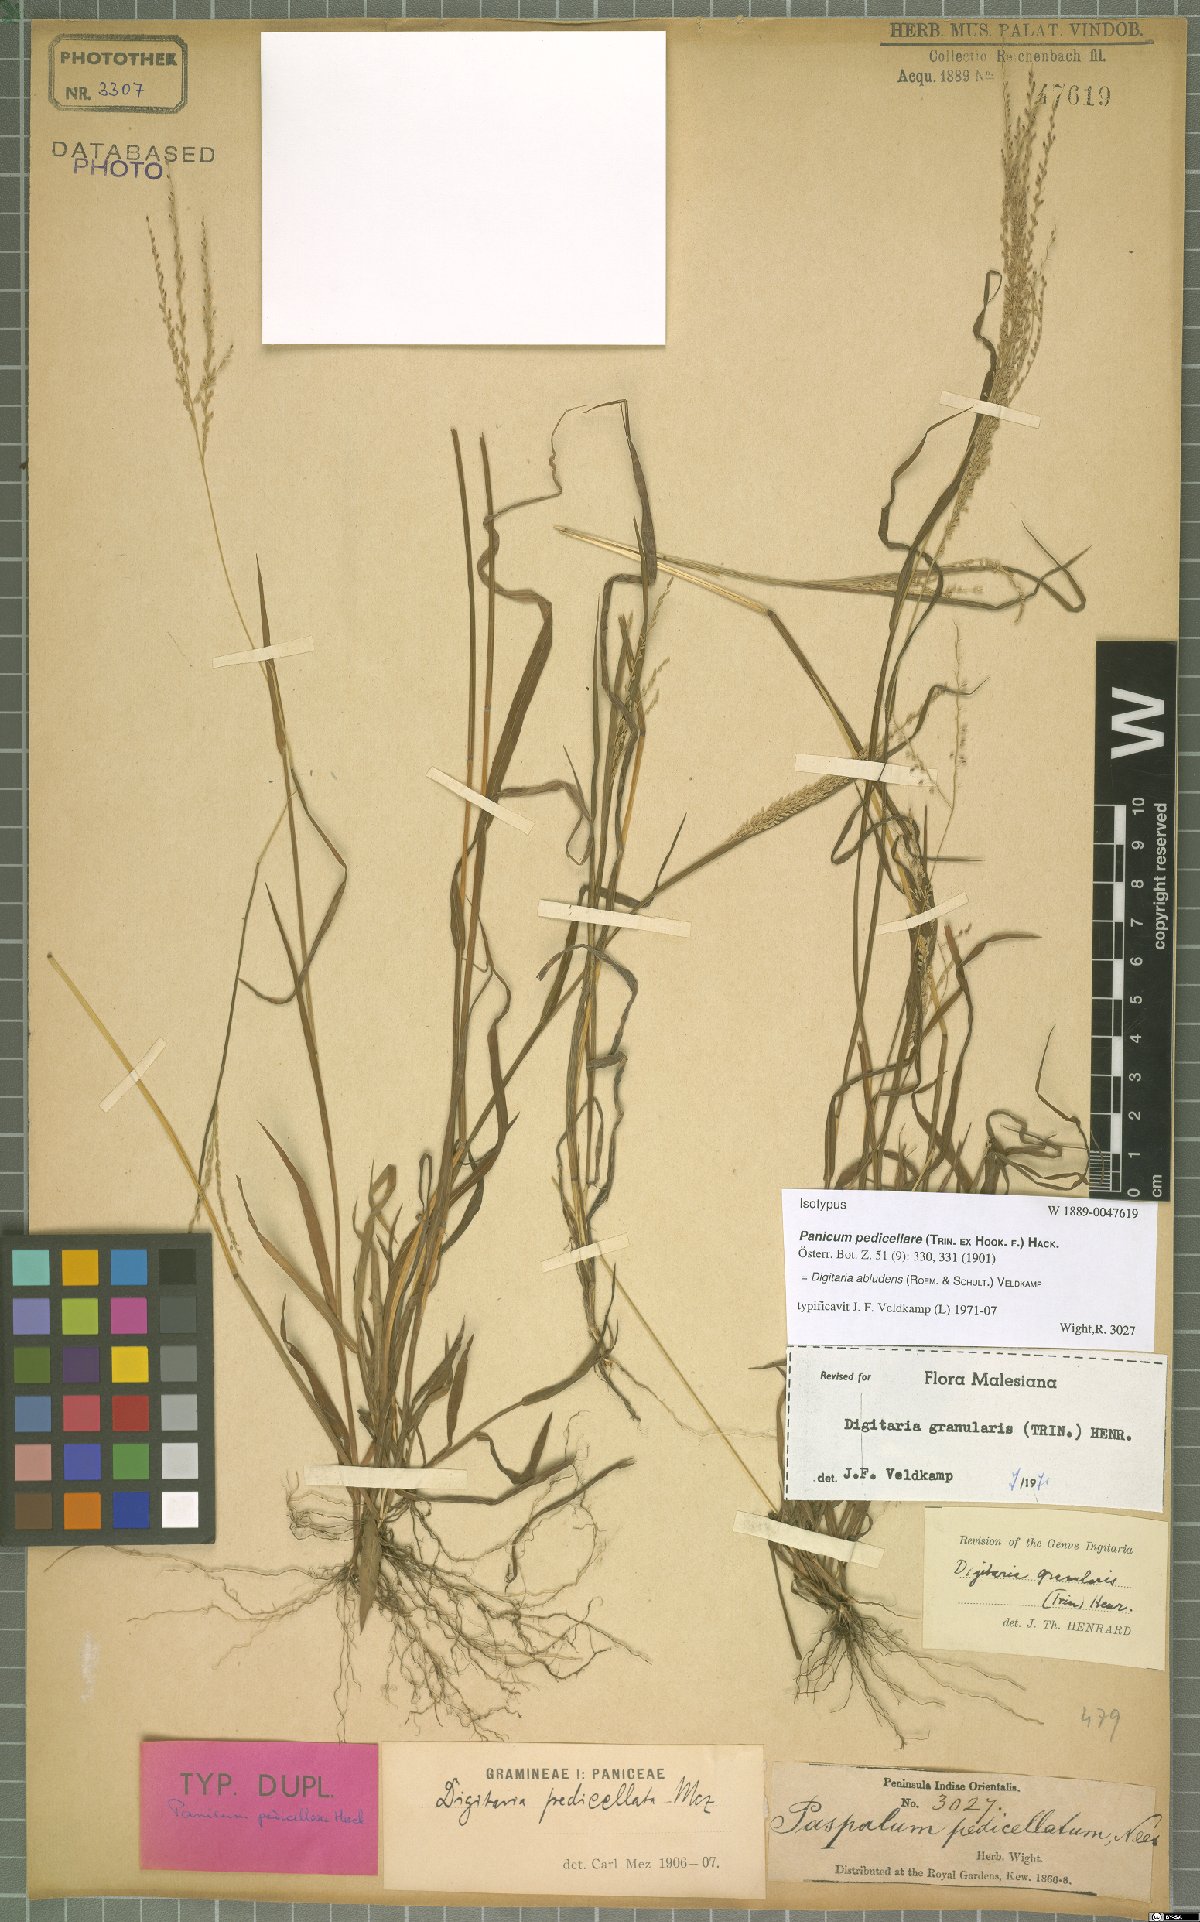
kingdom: Plantae
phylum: Tracheophyta
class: Liliopsida
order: Poales
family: Poaceae
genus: Digitaria
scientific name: Digitaria abludens
